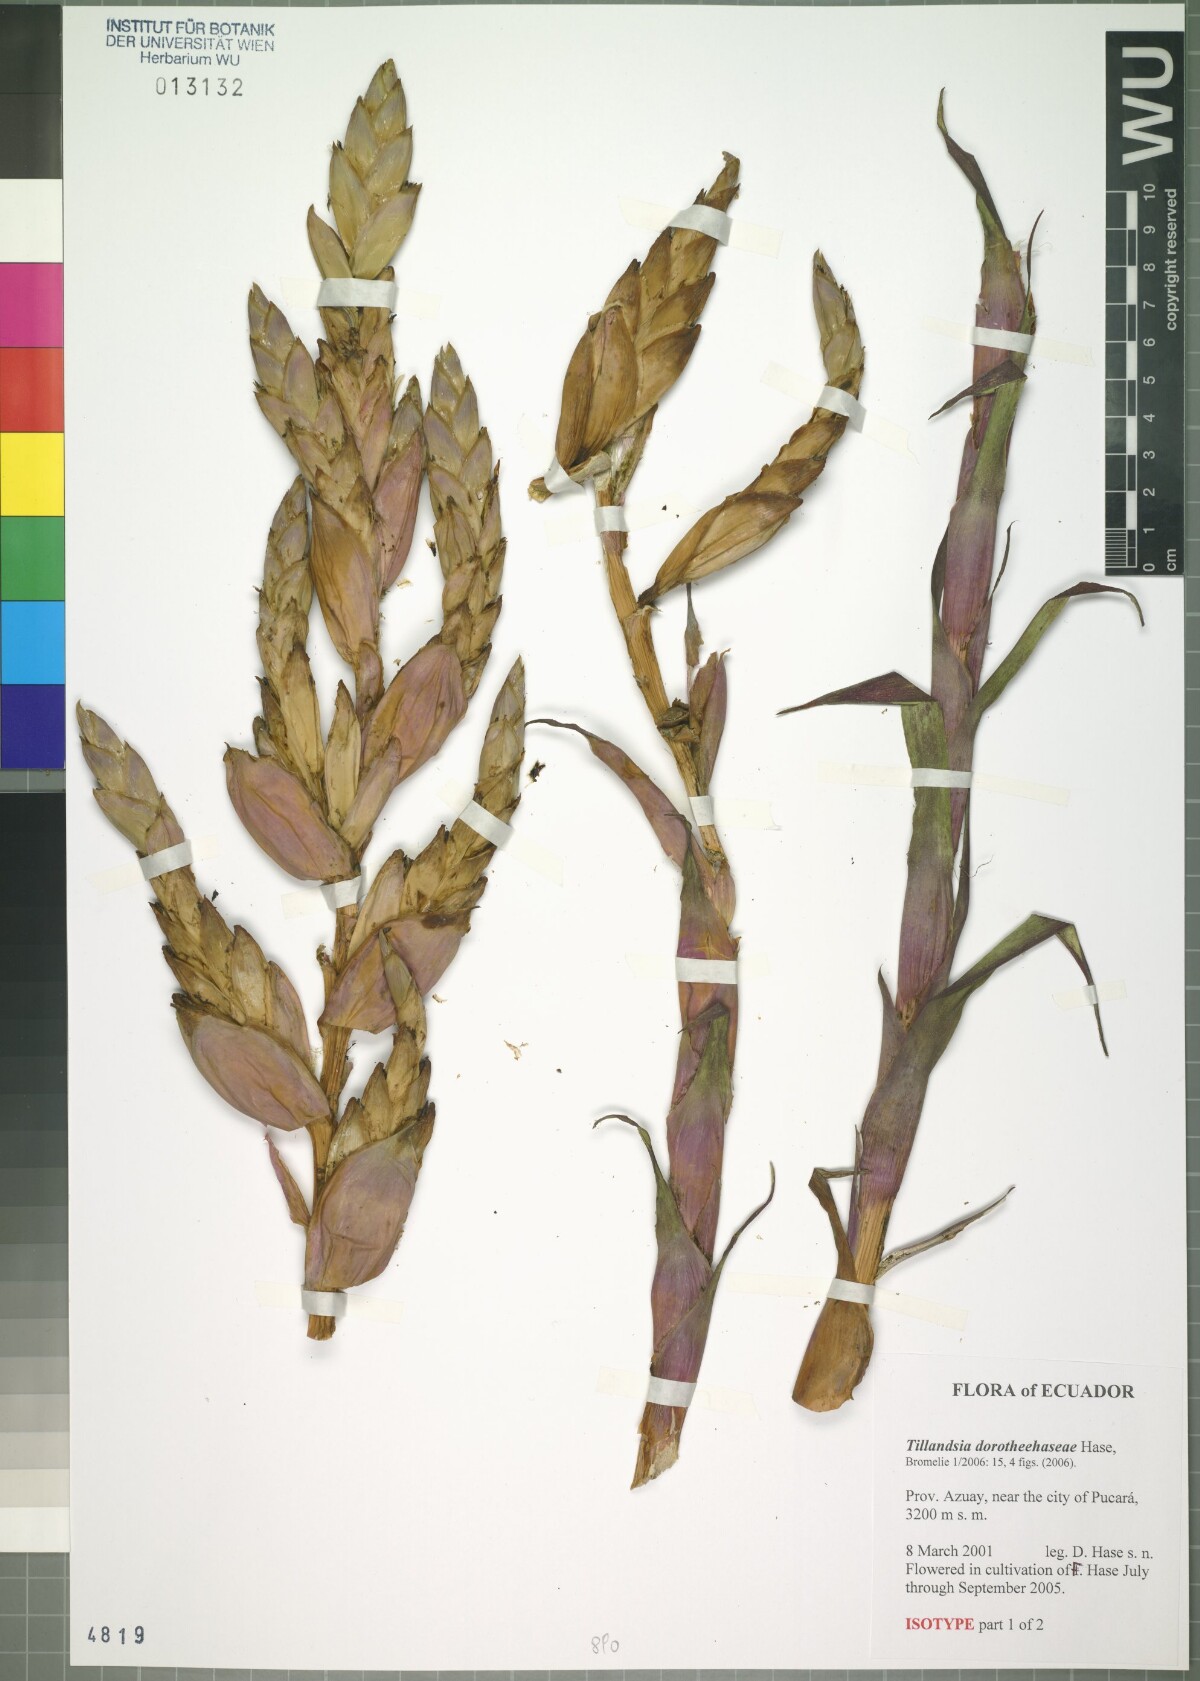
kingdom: Plantae
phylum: Tracheophyta
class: Liliopsida
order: Poales
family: Bromeliaceae
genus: Tillandsia
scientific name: Tillandsia dorotheehaseae
